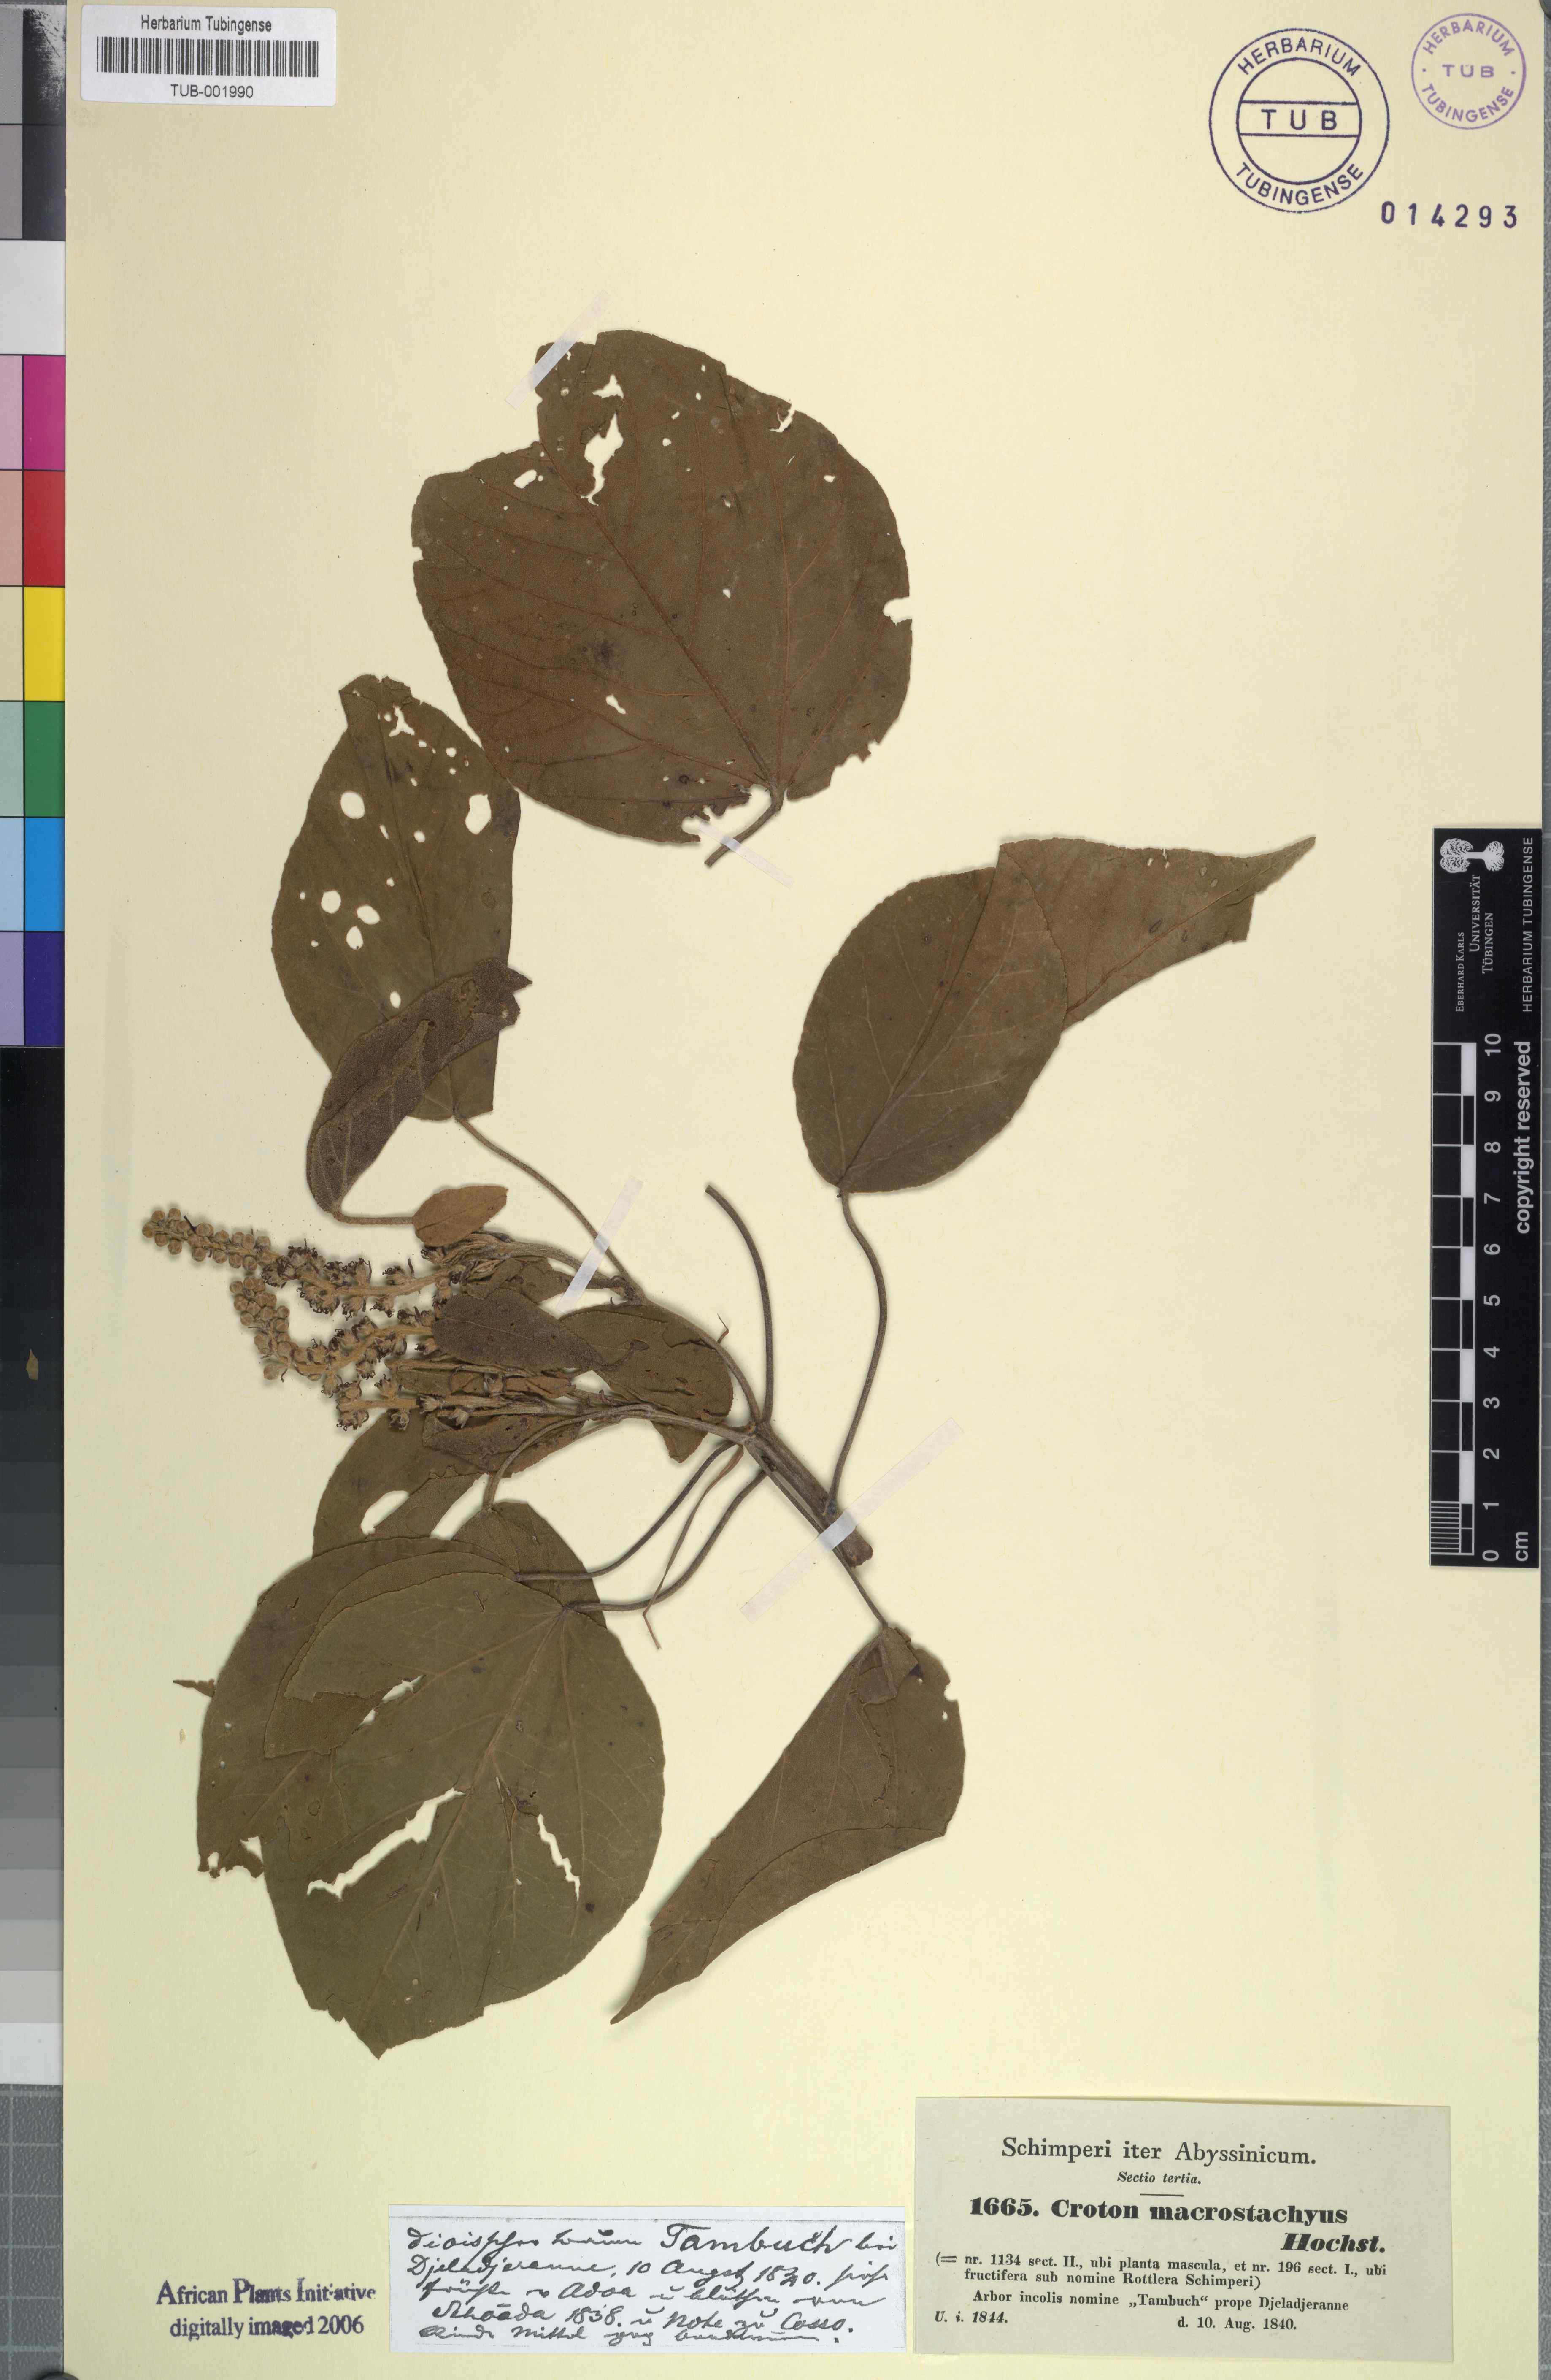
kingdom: Plantae
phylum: Tracheophyta
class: Magnoliopsida
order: Malpighiales
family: Euphorbiaceae
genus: Croton
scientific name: Croton macrostachys
